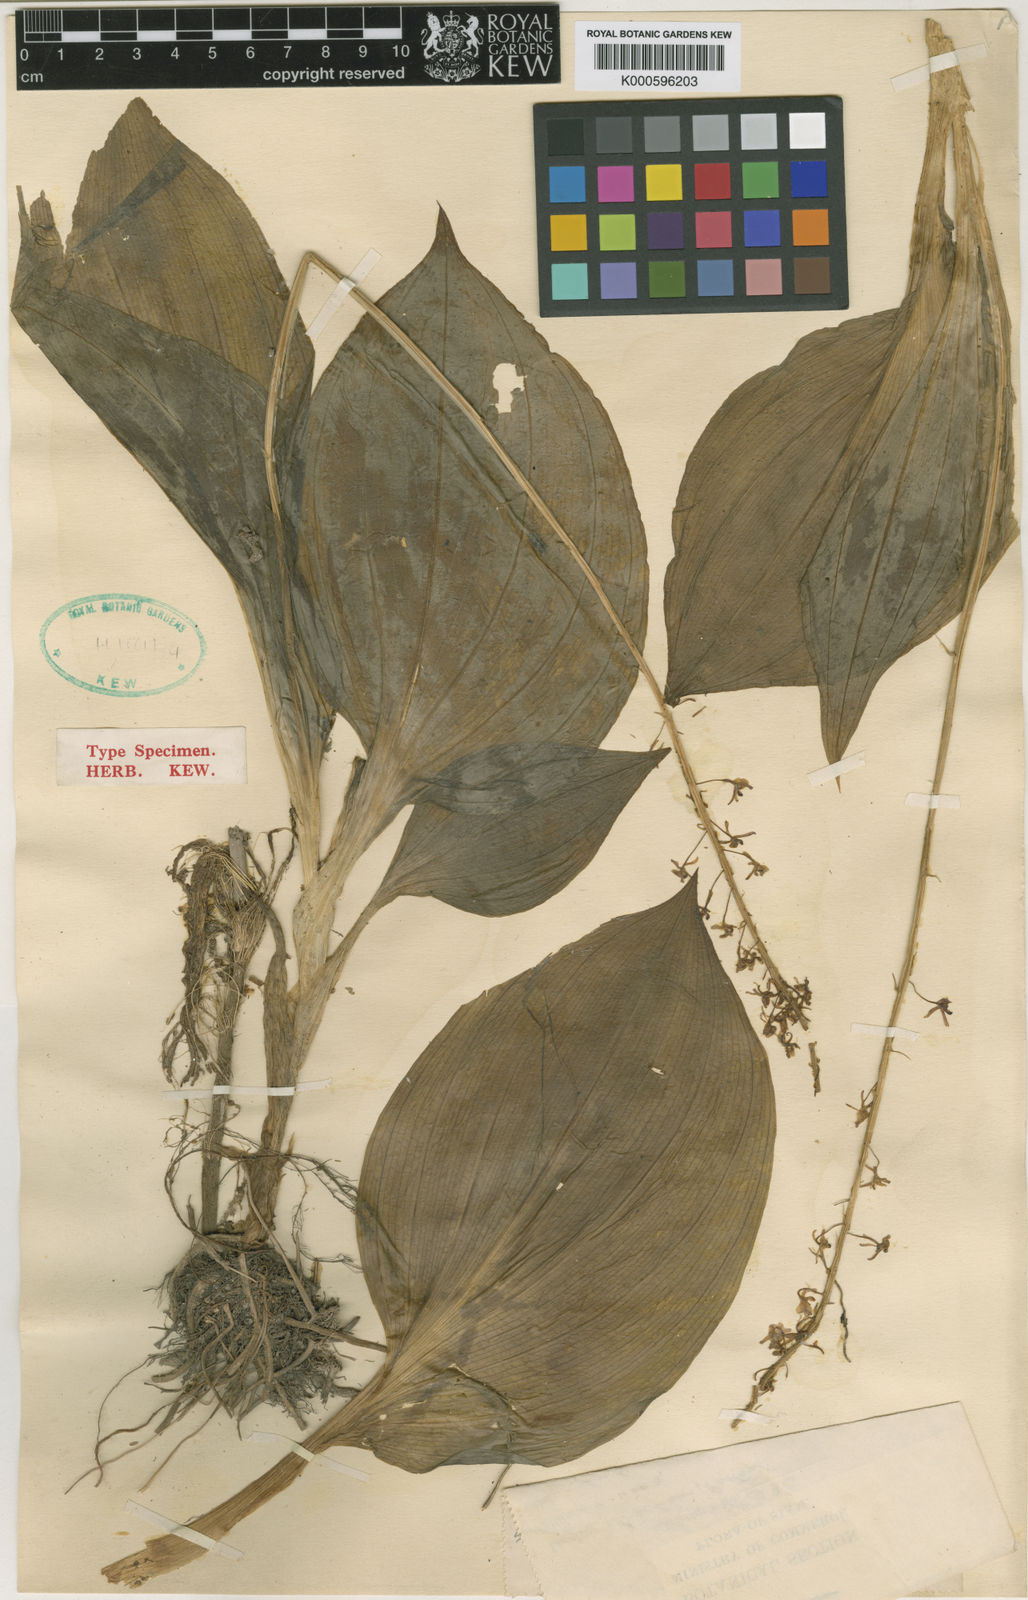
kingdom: Plantae
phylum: Tracheophyta
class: Liliopsida
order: Asparagales
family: Orchidaceae
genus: Liparis
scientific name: Liparis rheedei
